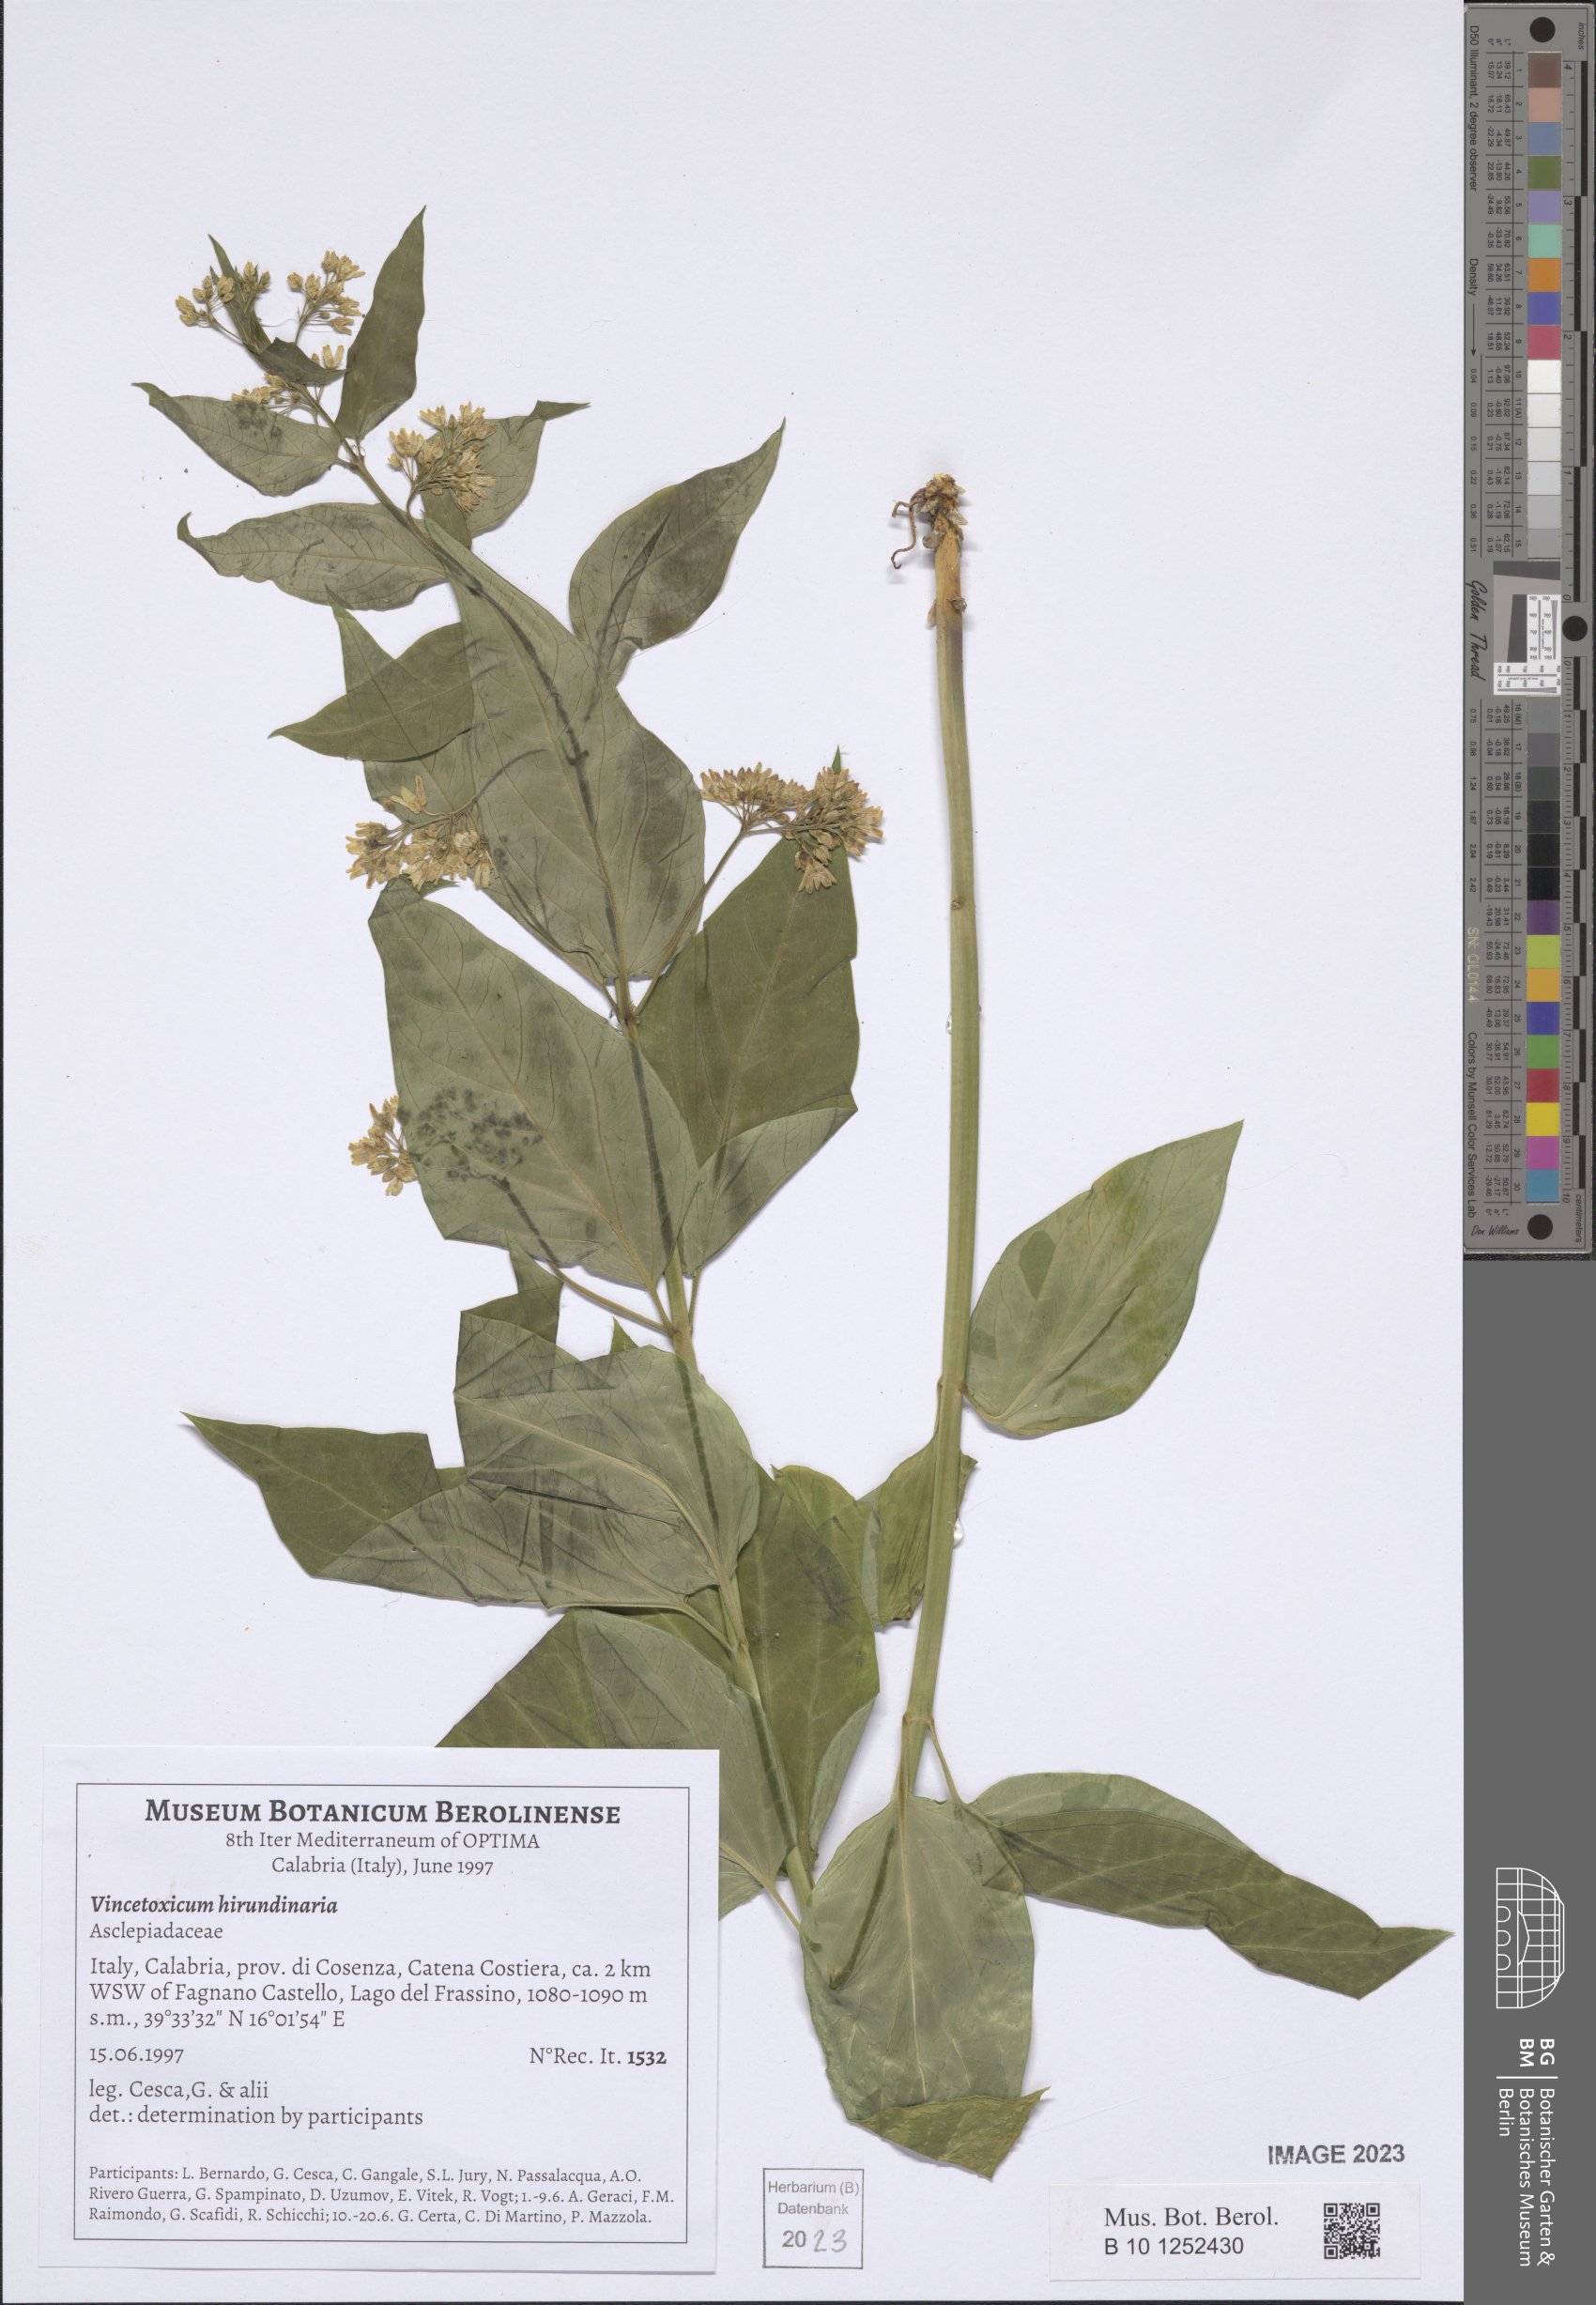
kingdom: Plantae
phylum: Tracheophyta
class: Magnoliopsida
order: Gentianales
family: Apocynaceae
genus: Vincetoxicum
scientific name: Vincetoxicum hirundinaria
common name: White swallowwort
